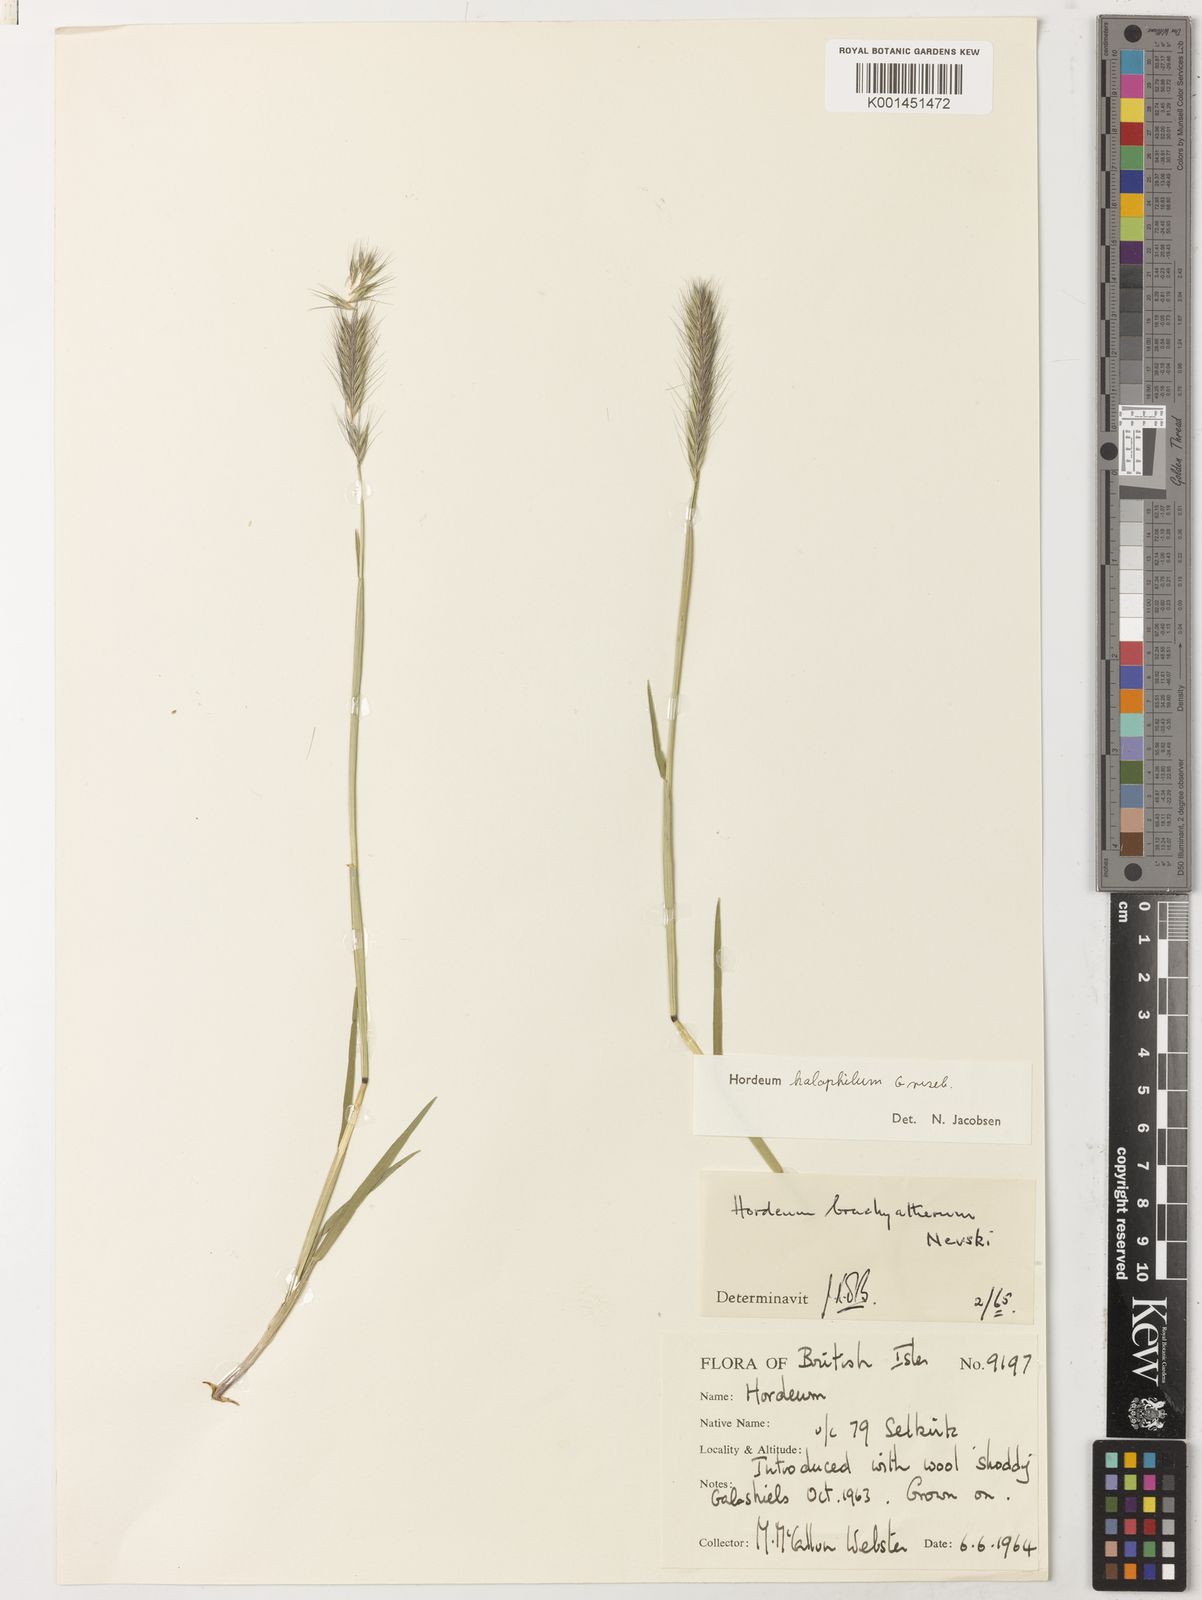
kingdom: Plantae
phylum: Tracheophyta
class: Liliopsida
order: Poales
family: Poaceae
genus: Hordeum
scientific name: Hordeum pubiflorum
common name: Antarctic barley
